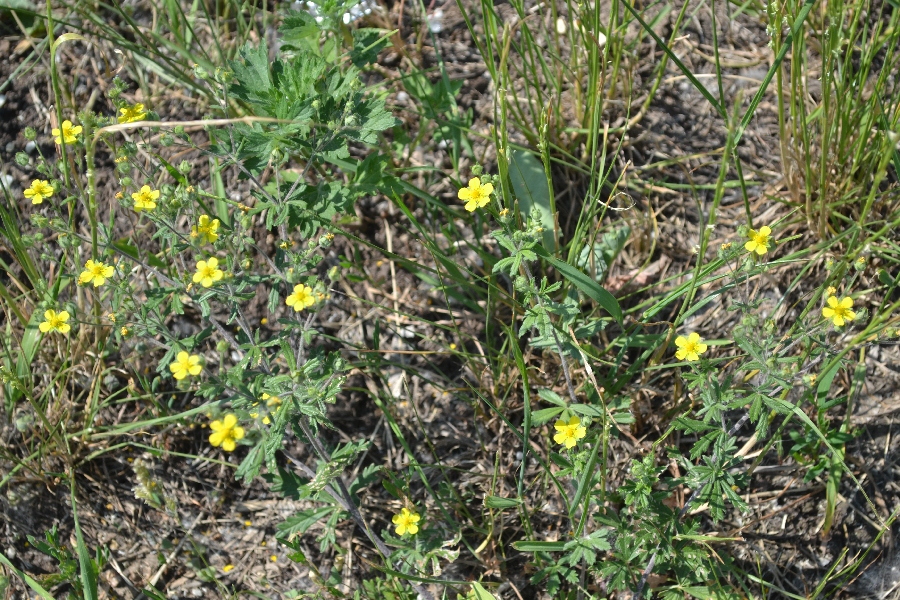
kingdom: Plantae
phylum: Tracheophyta
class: Magnoliopsida
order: Rosales
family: Rosaceae
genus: Potentilla
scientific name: Potentilla argentea
